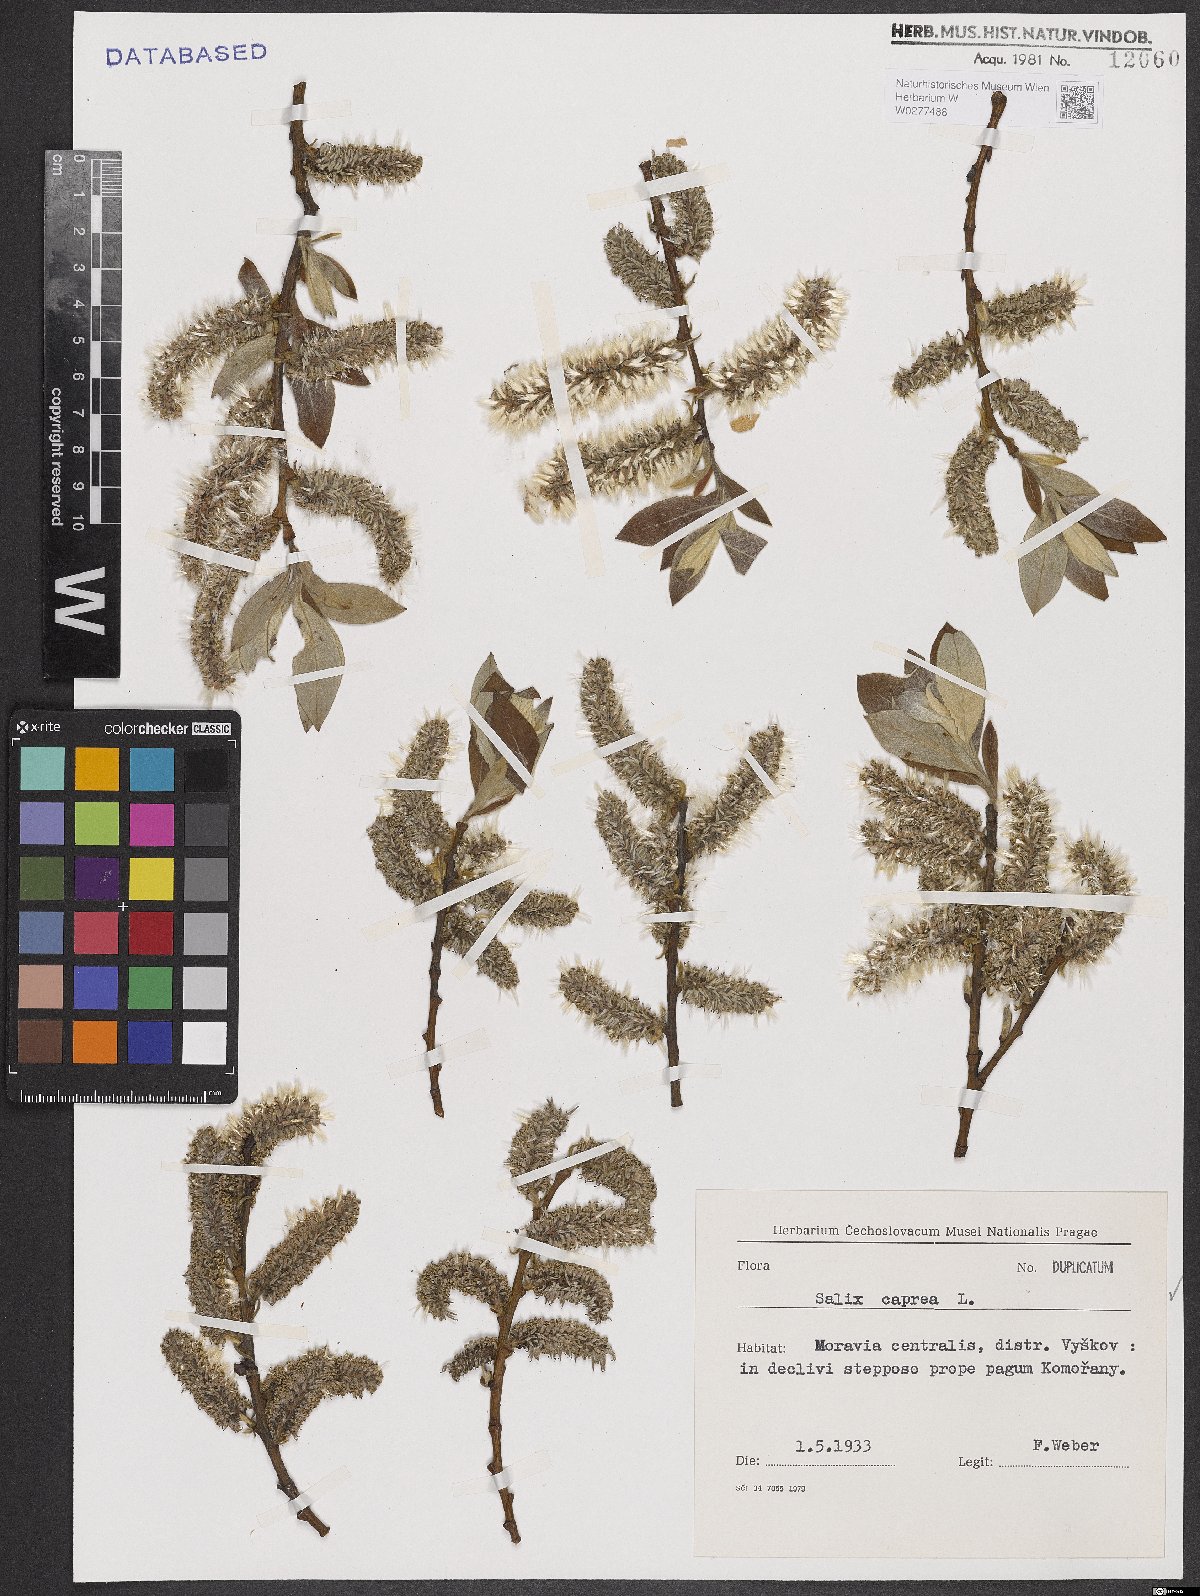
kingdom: Plantae
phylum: Tracheophyta
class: Magnoliopsida
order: Malpighiales
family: Salicaceae
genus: Salix
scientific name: Salix caprea
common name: Goat willow
